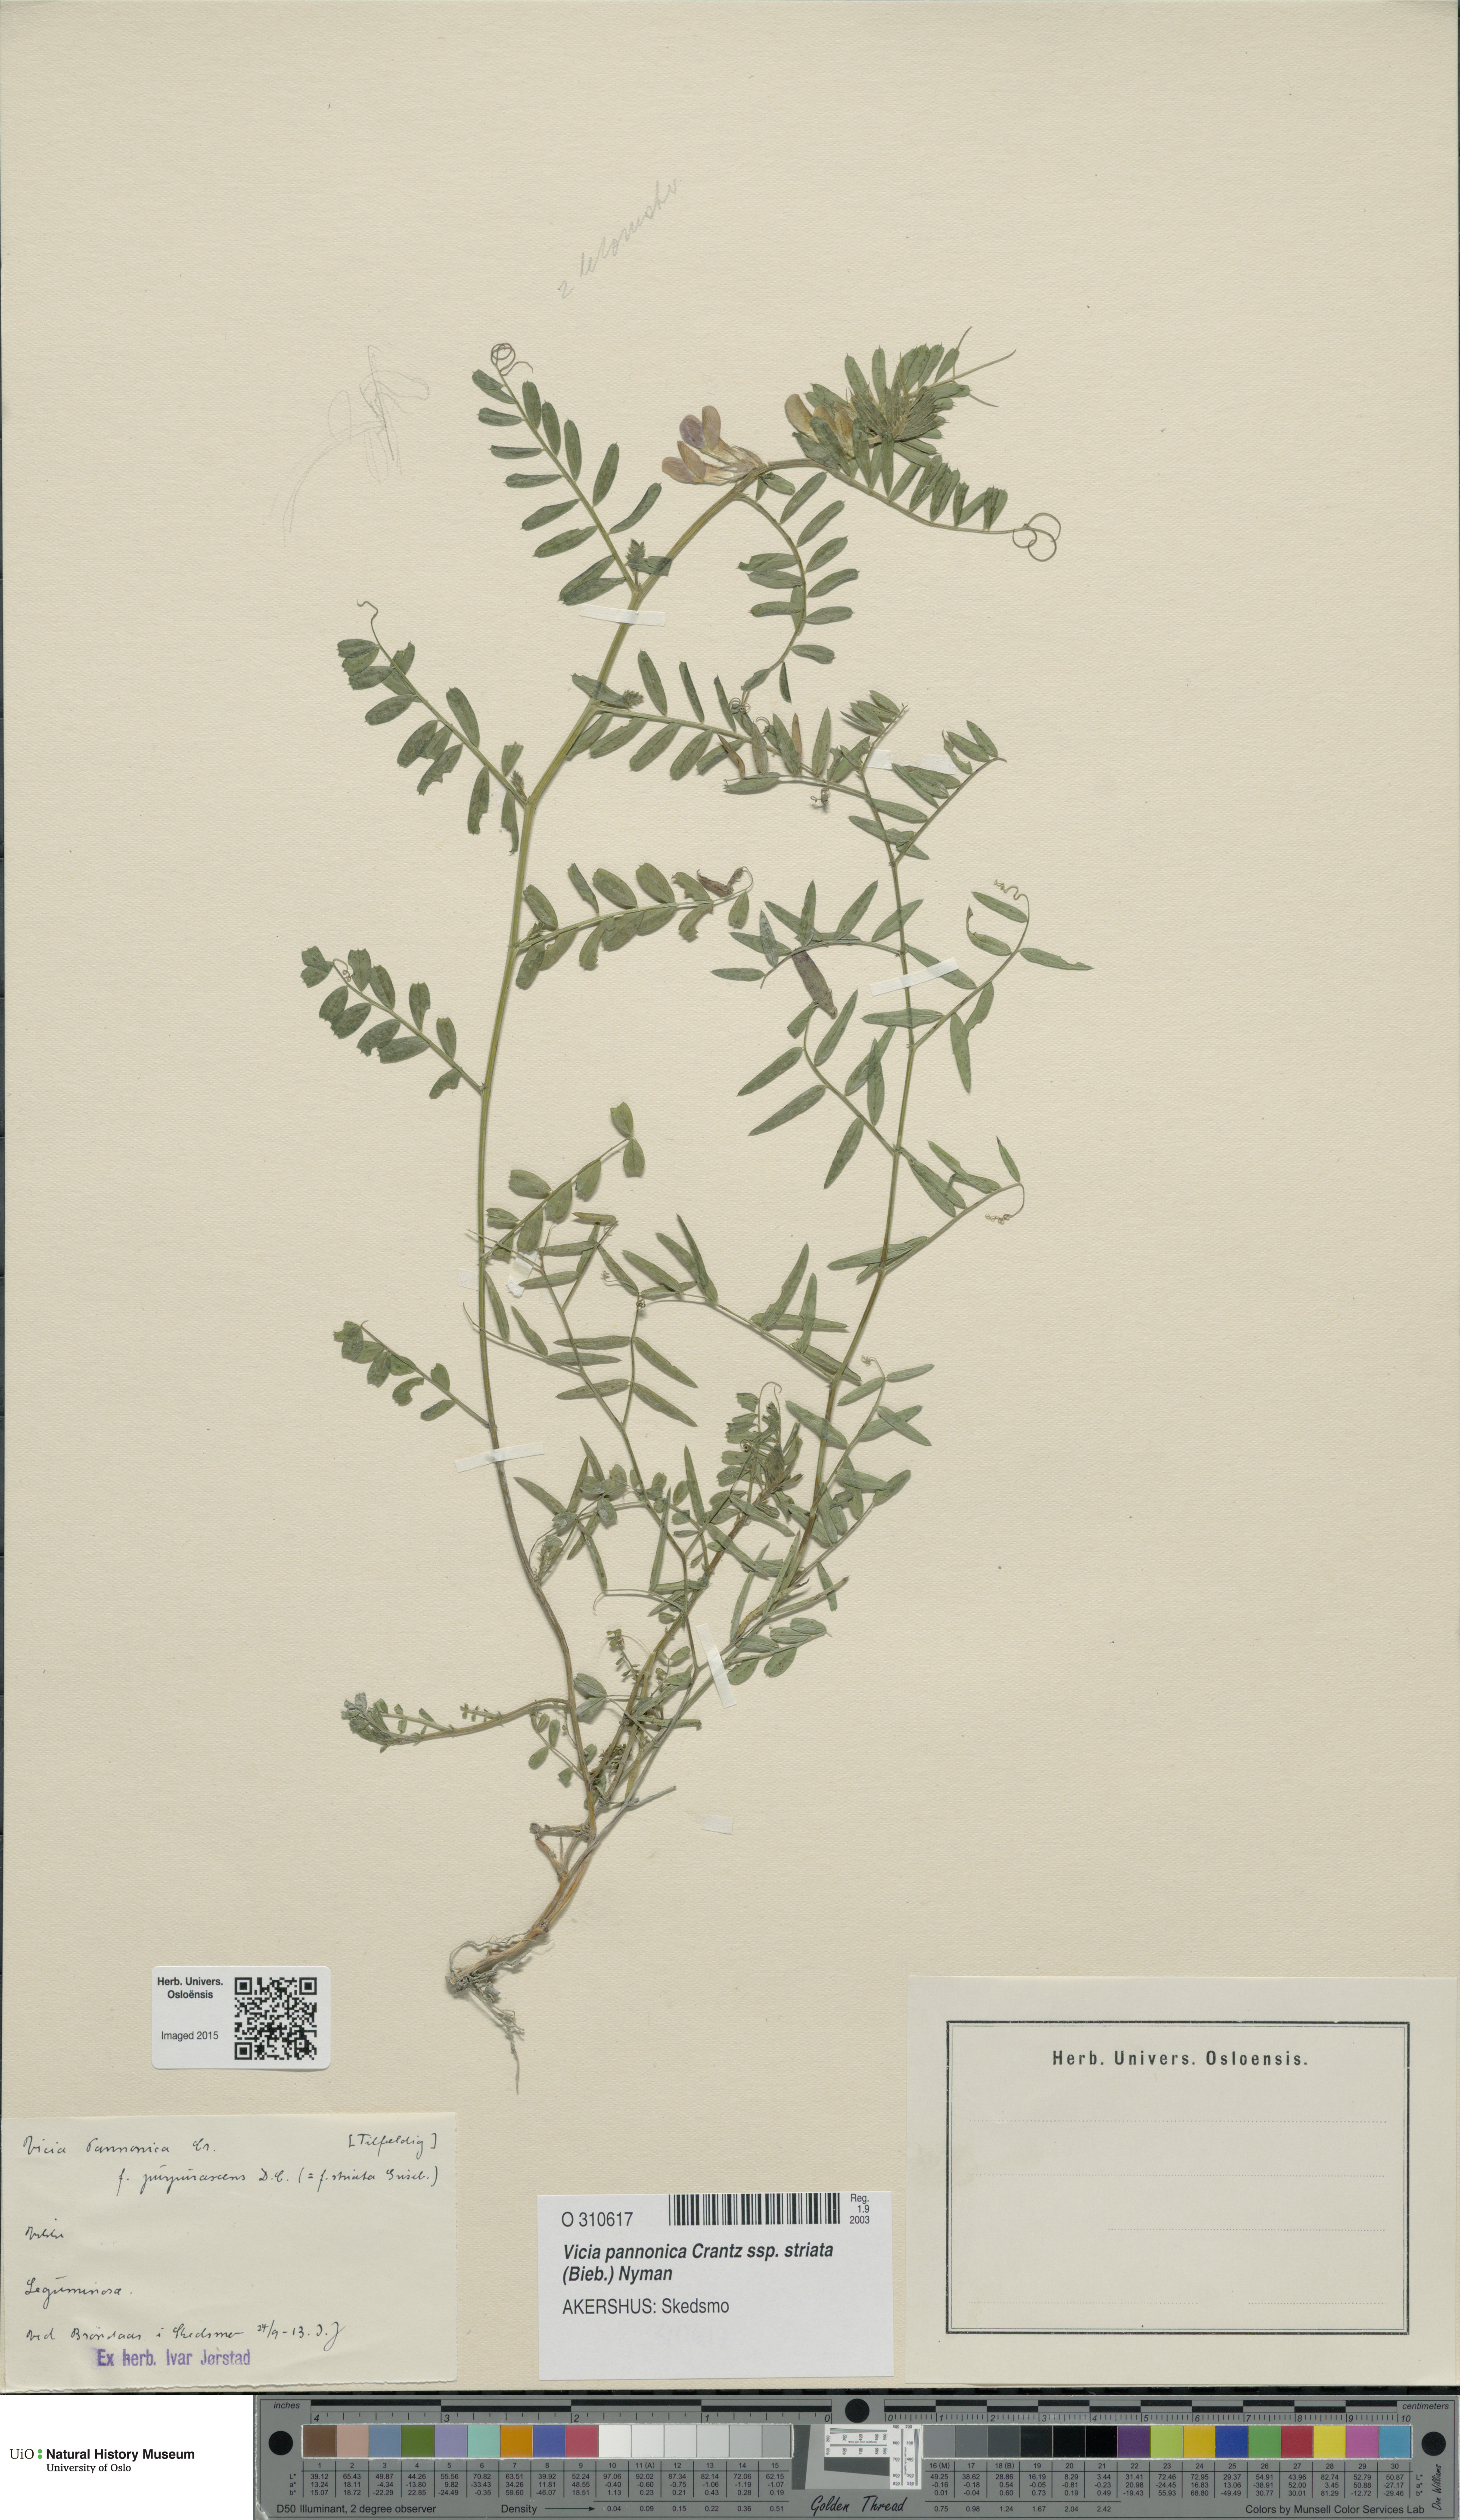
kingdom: Plantae
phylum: Tracheophyta
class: Magnoliopsida
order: Fabales
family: Fabaceae
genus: Vicia
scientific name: Vicia pannonica
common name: Hungarian vetch
